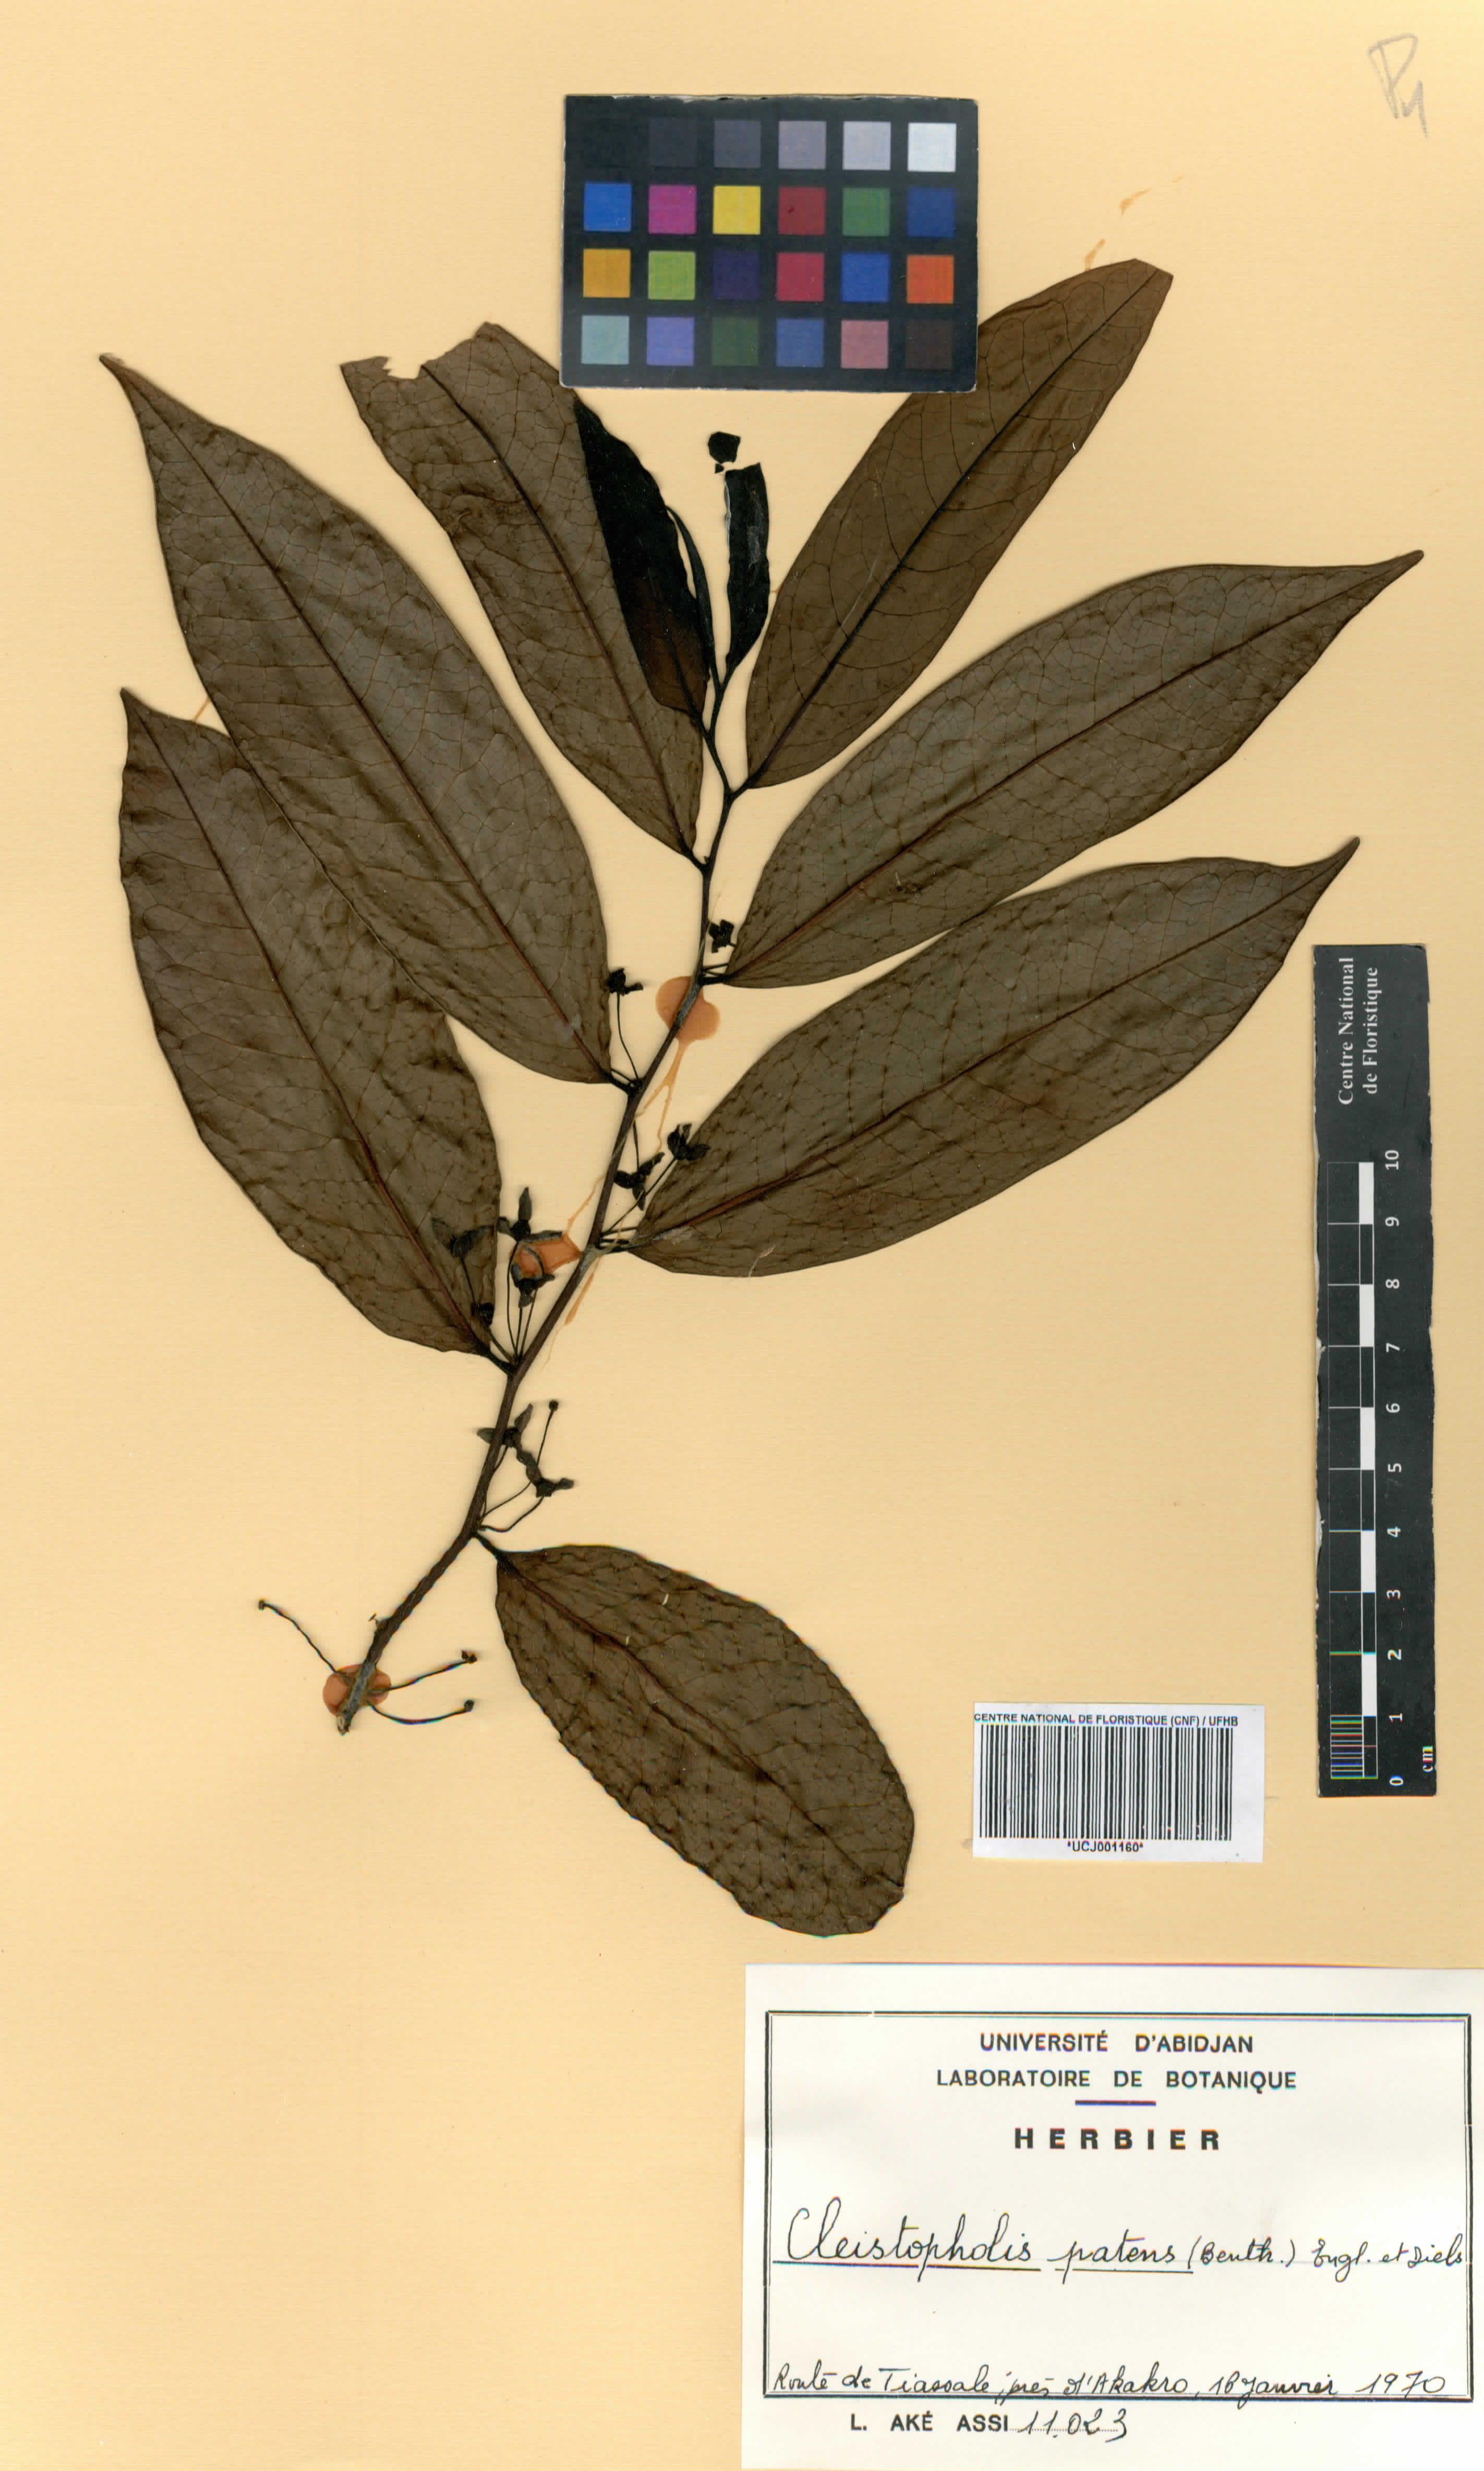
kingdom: Plantae
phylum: Tracheophyta
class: Magnoliopsida
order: Magnoliales
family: Annonaceae
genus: Cleistopholis
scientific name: Cleistopholis patens
